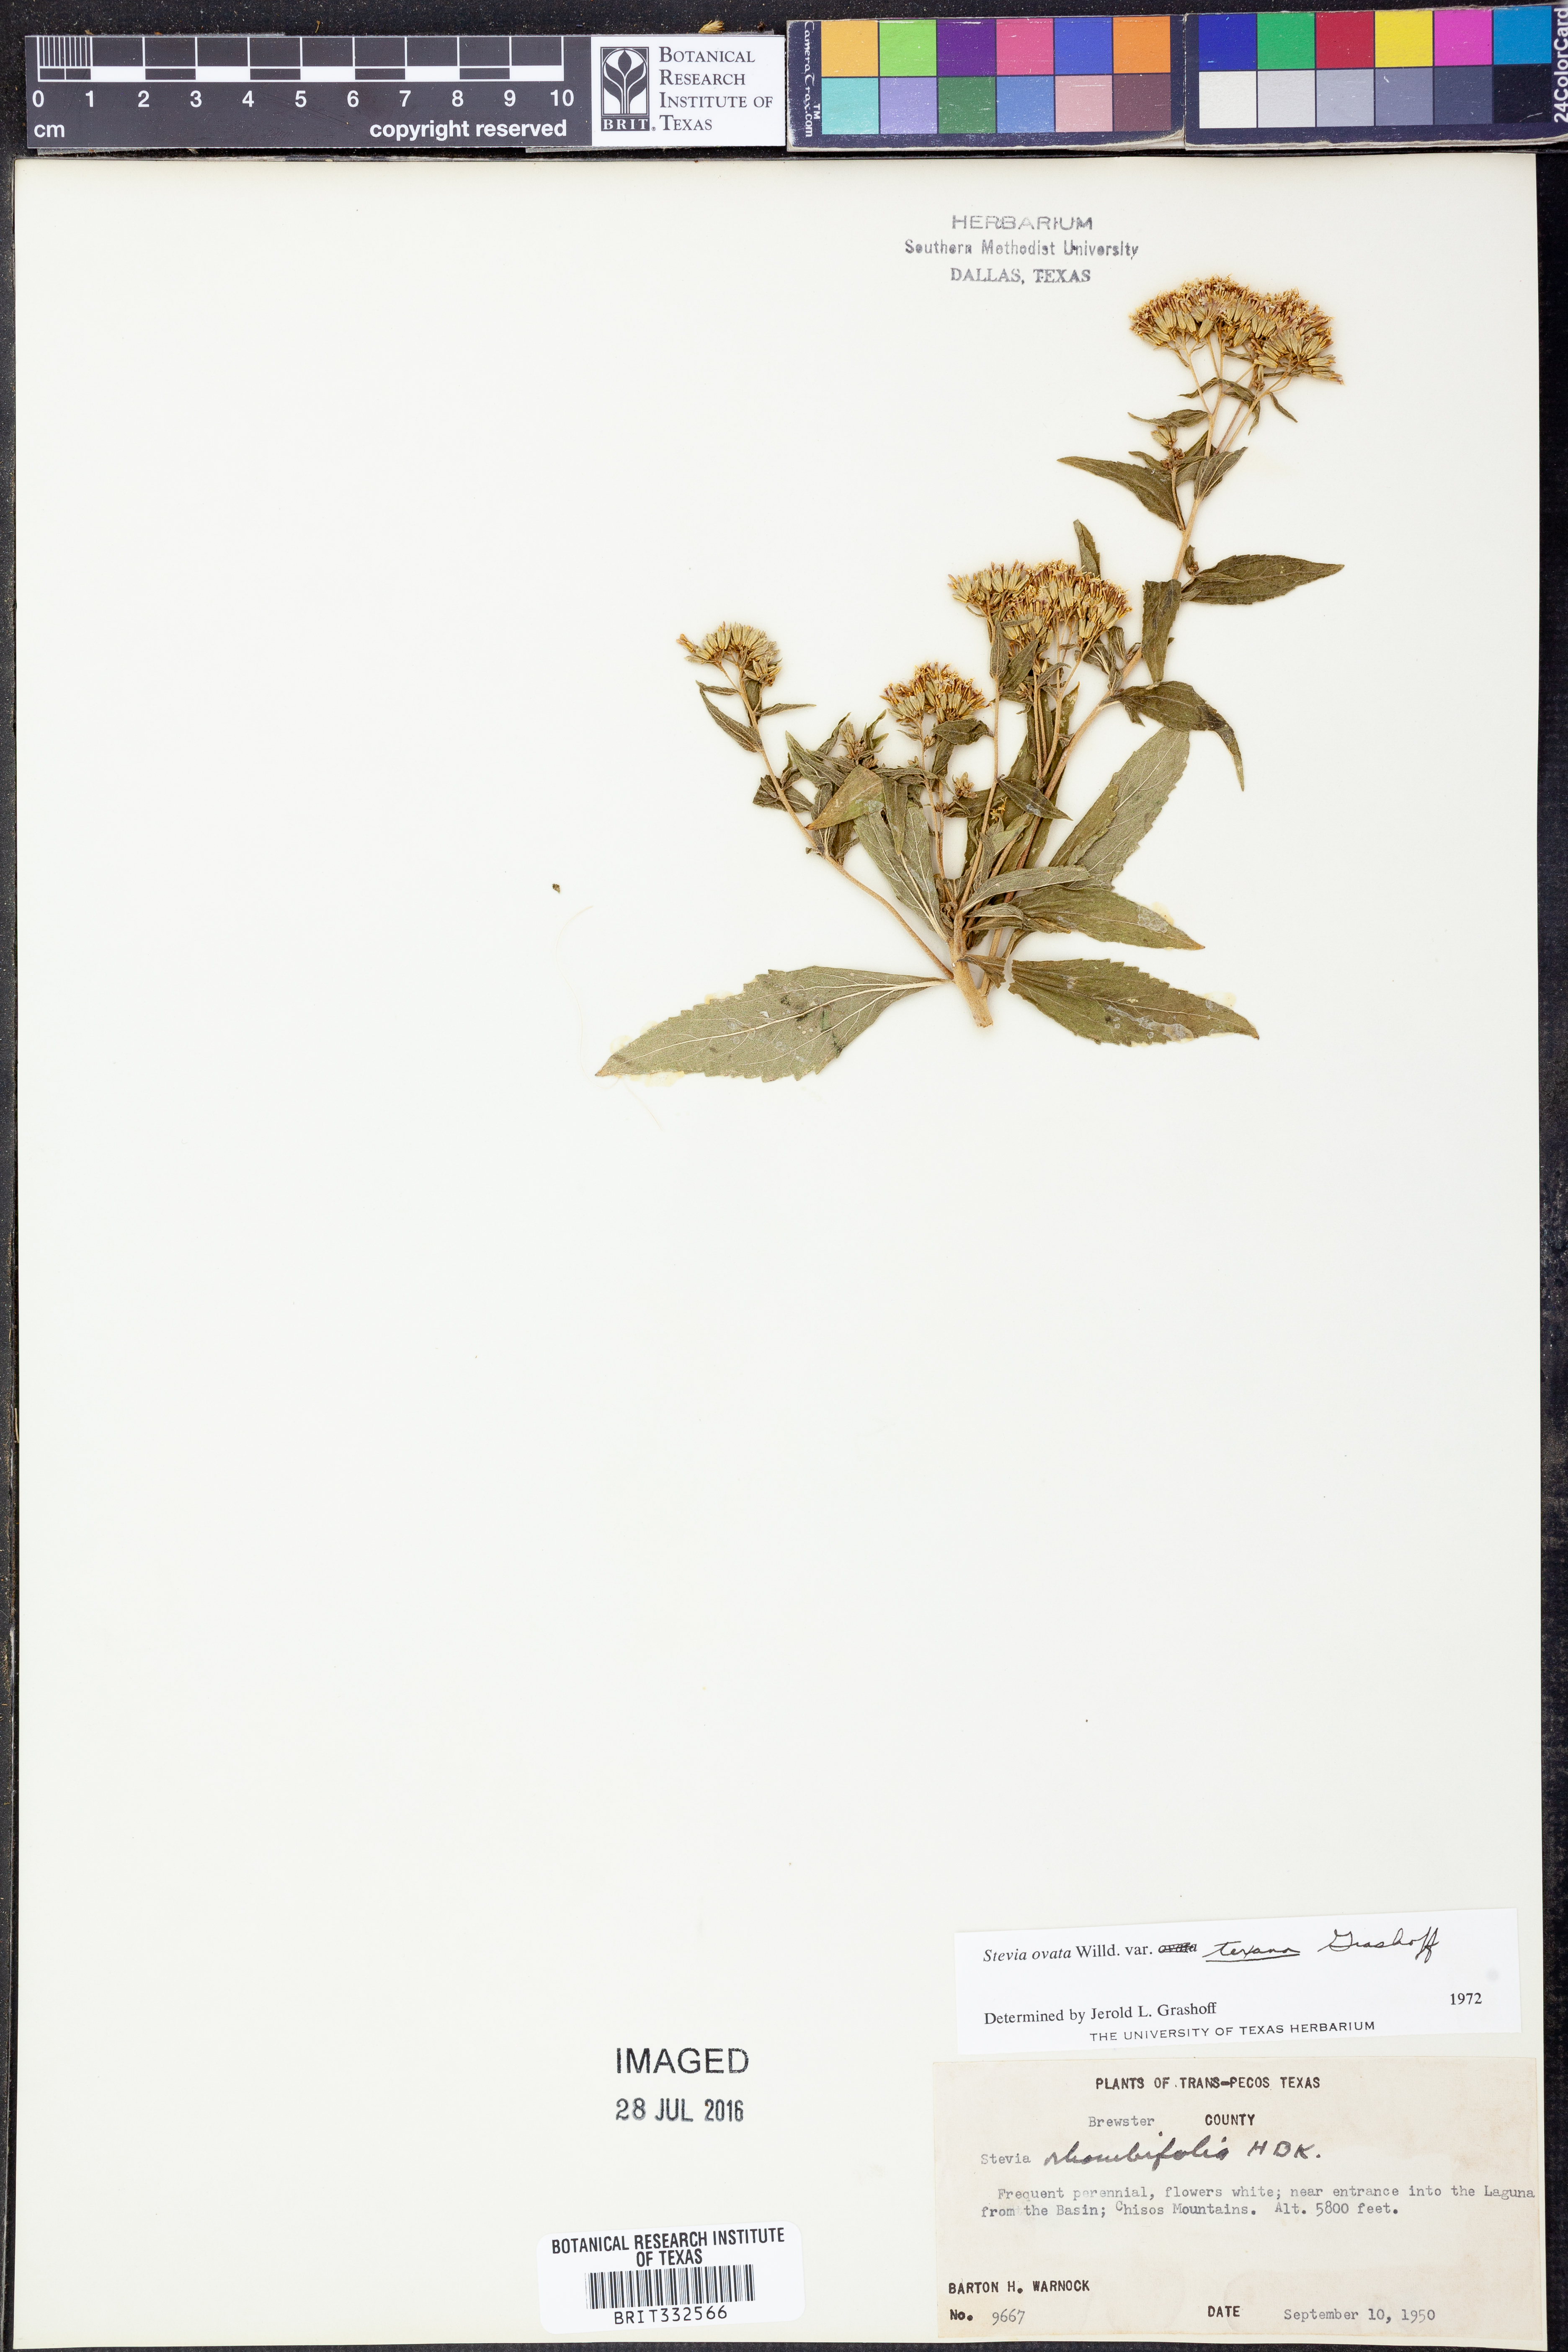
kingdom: Plantae
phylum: Tracheophyta
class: Magnoliopsida
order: Asterales
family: Asteraceae
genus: Stevia
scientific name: Stevia ovata
